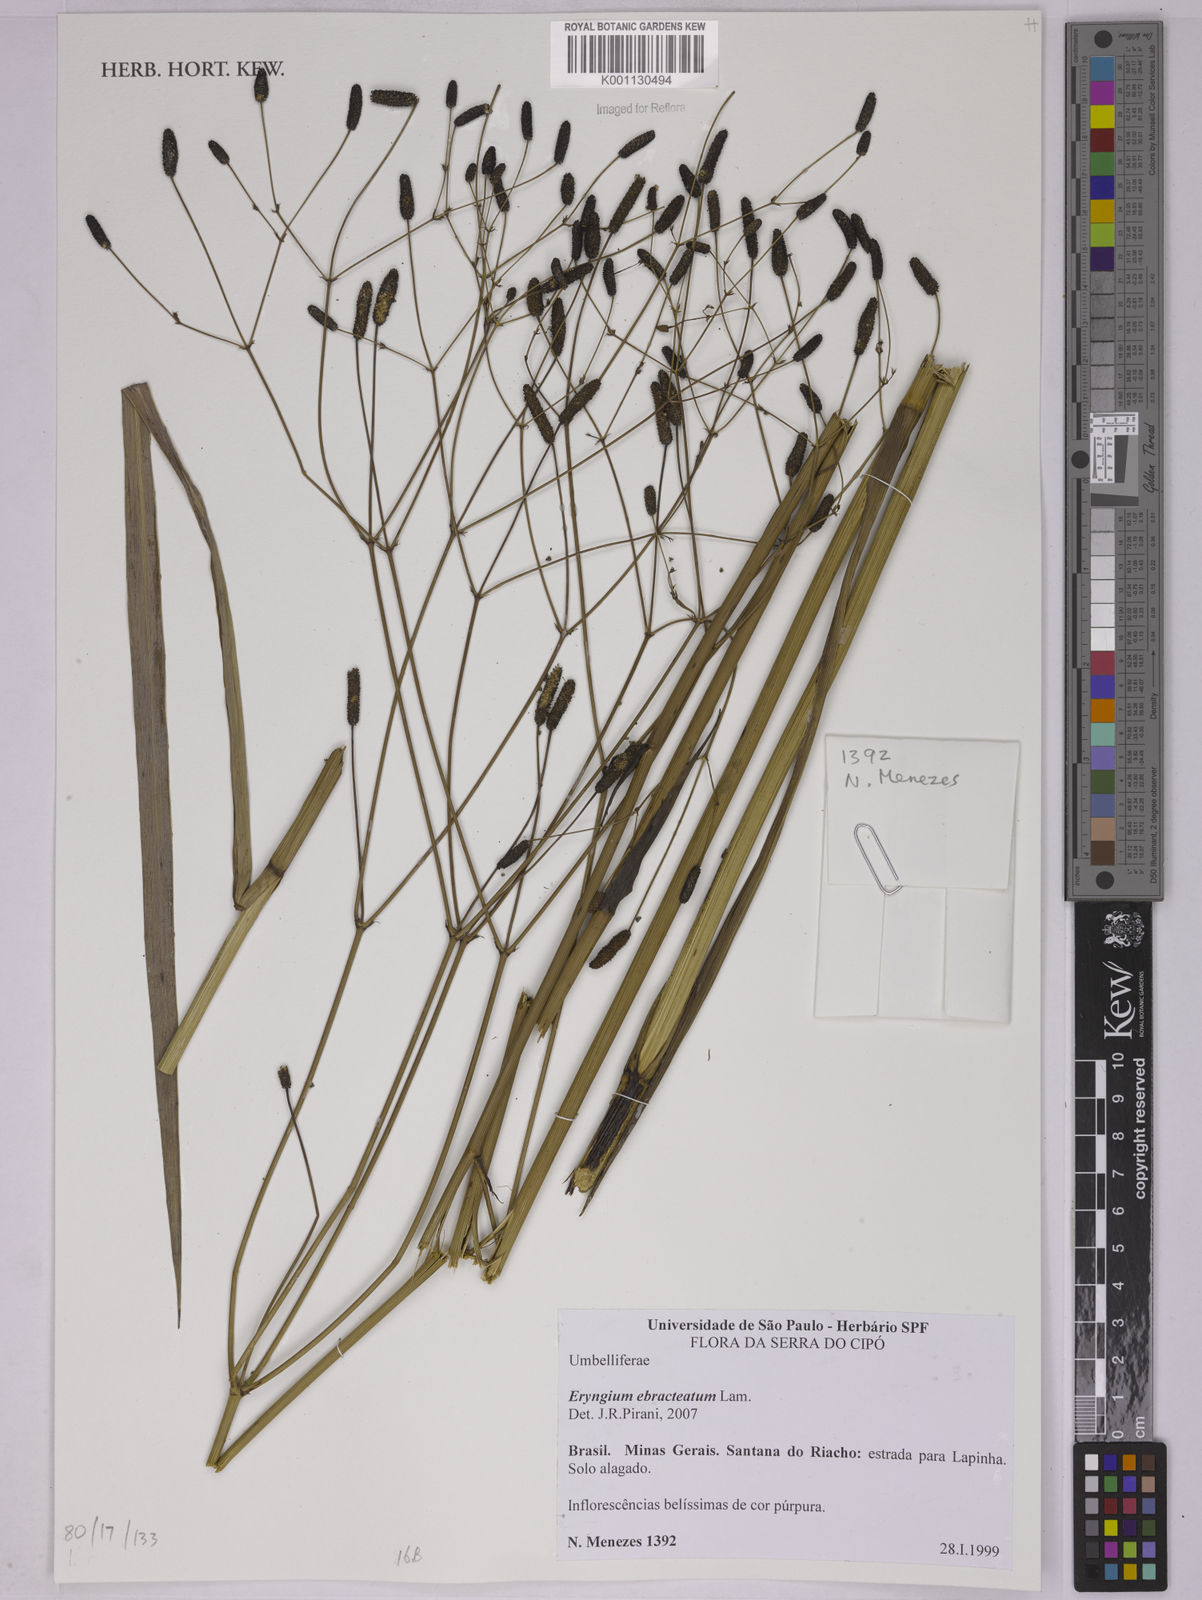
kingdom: Plantae
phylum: Tracheophyta
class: Magnoliopsida
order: Apiales
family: Apiaceae
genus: Eryngium
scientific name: Eryngium ebracteatum
